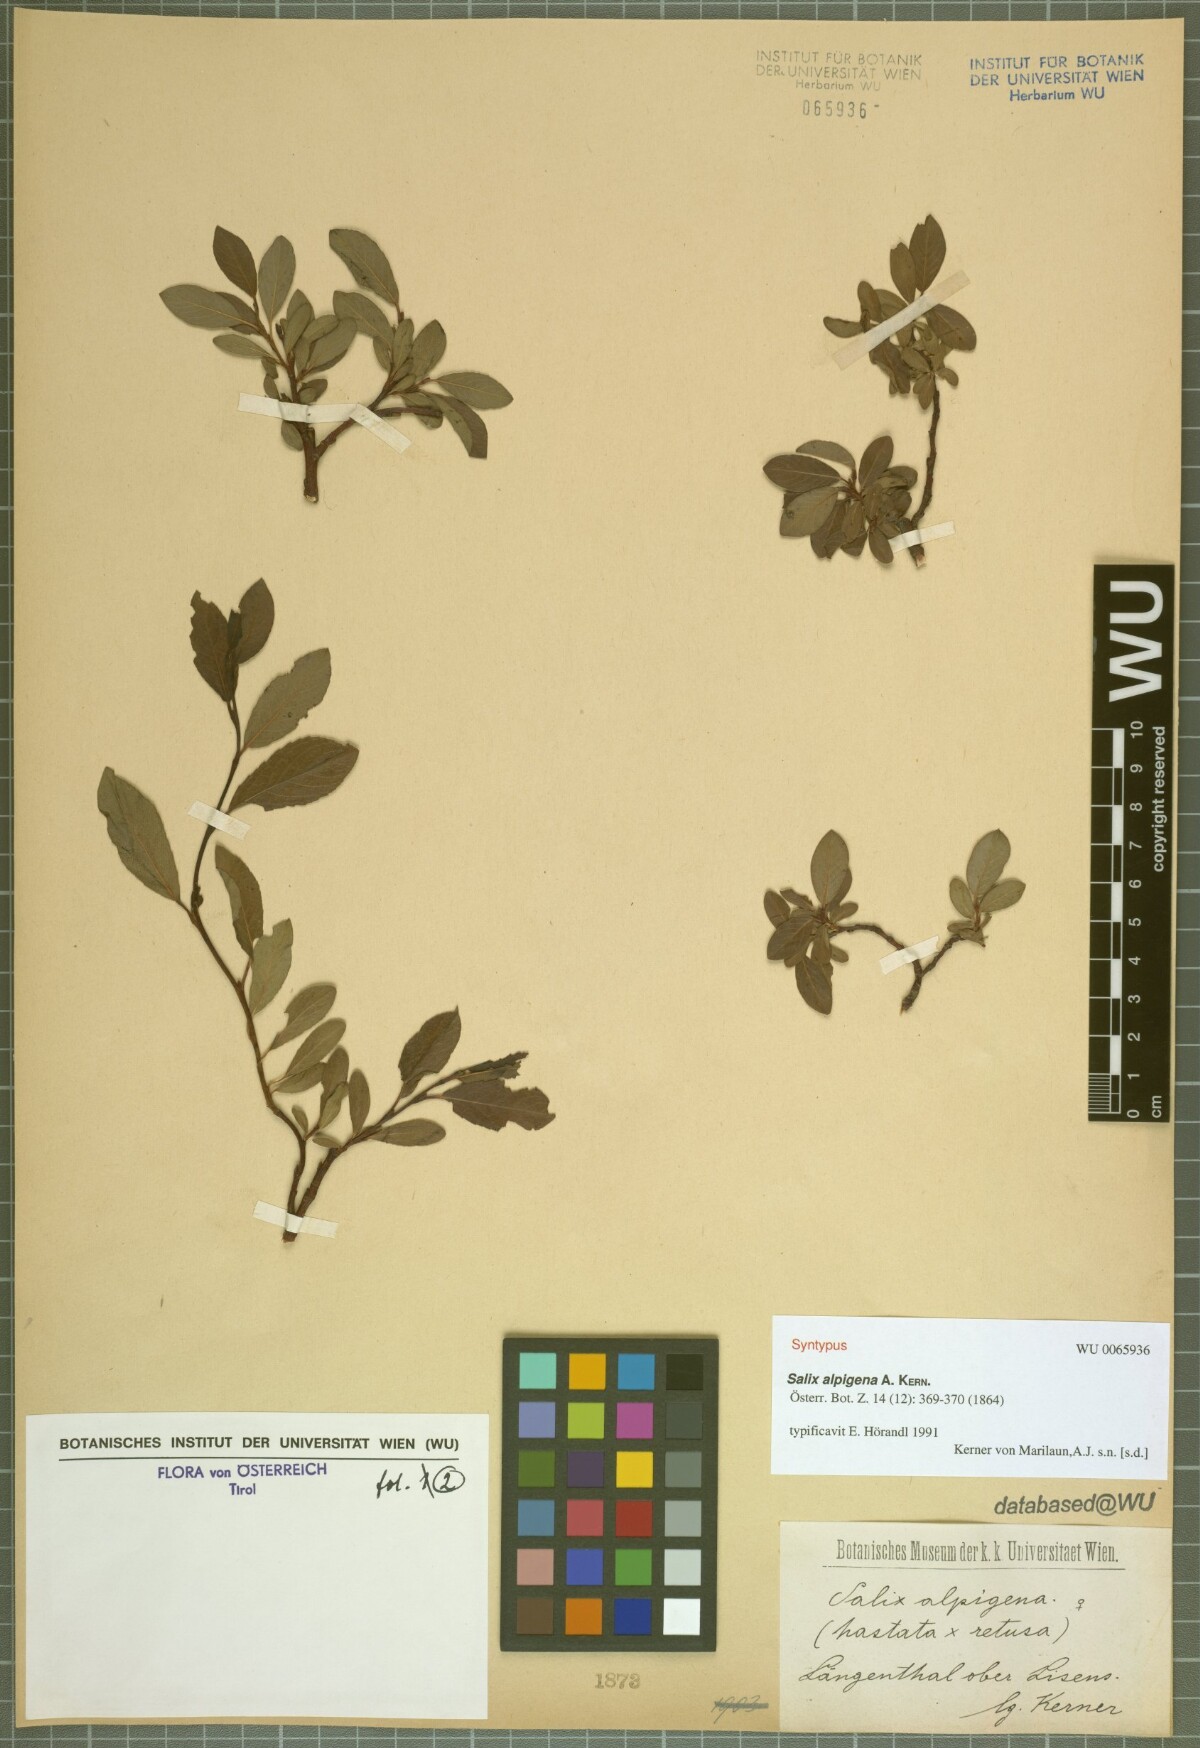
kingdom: Plantae
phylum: Tracheophyta
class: Magnoliopsida
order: Malpighiales
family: Salicaceae
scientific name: Salicaceae
